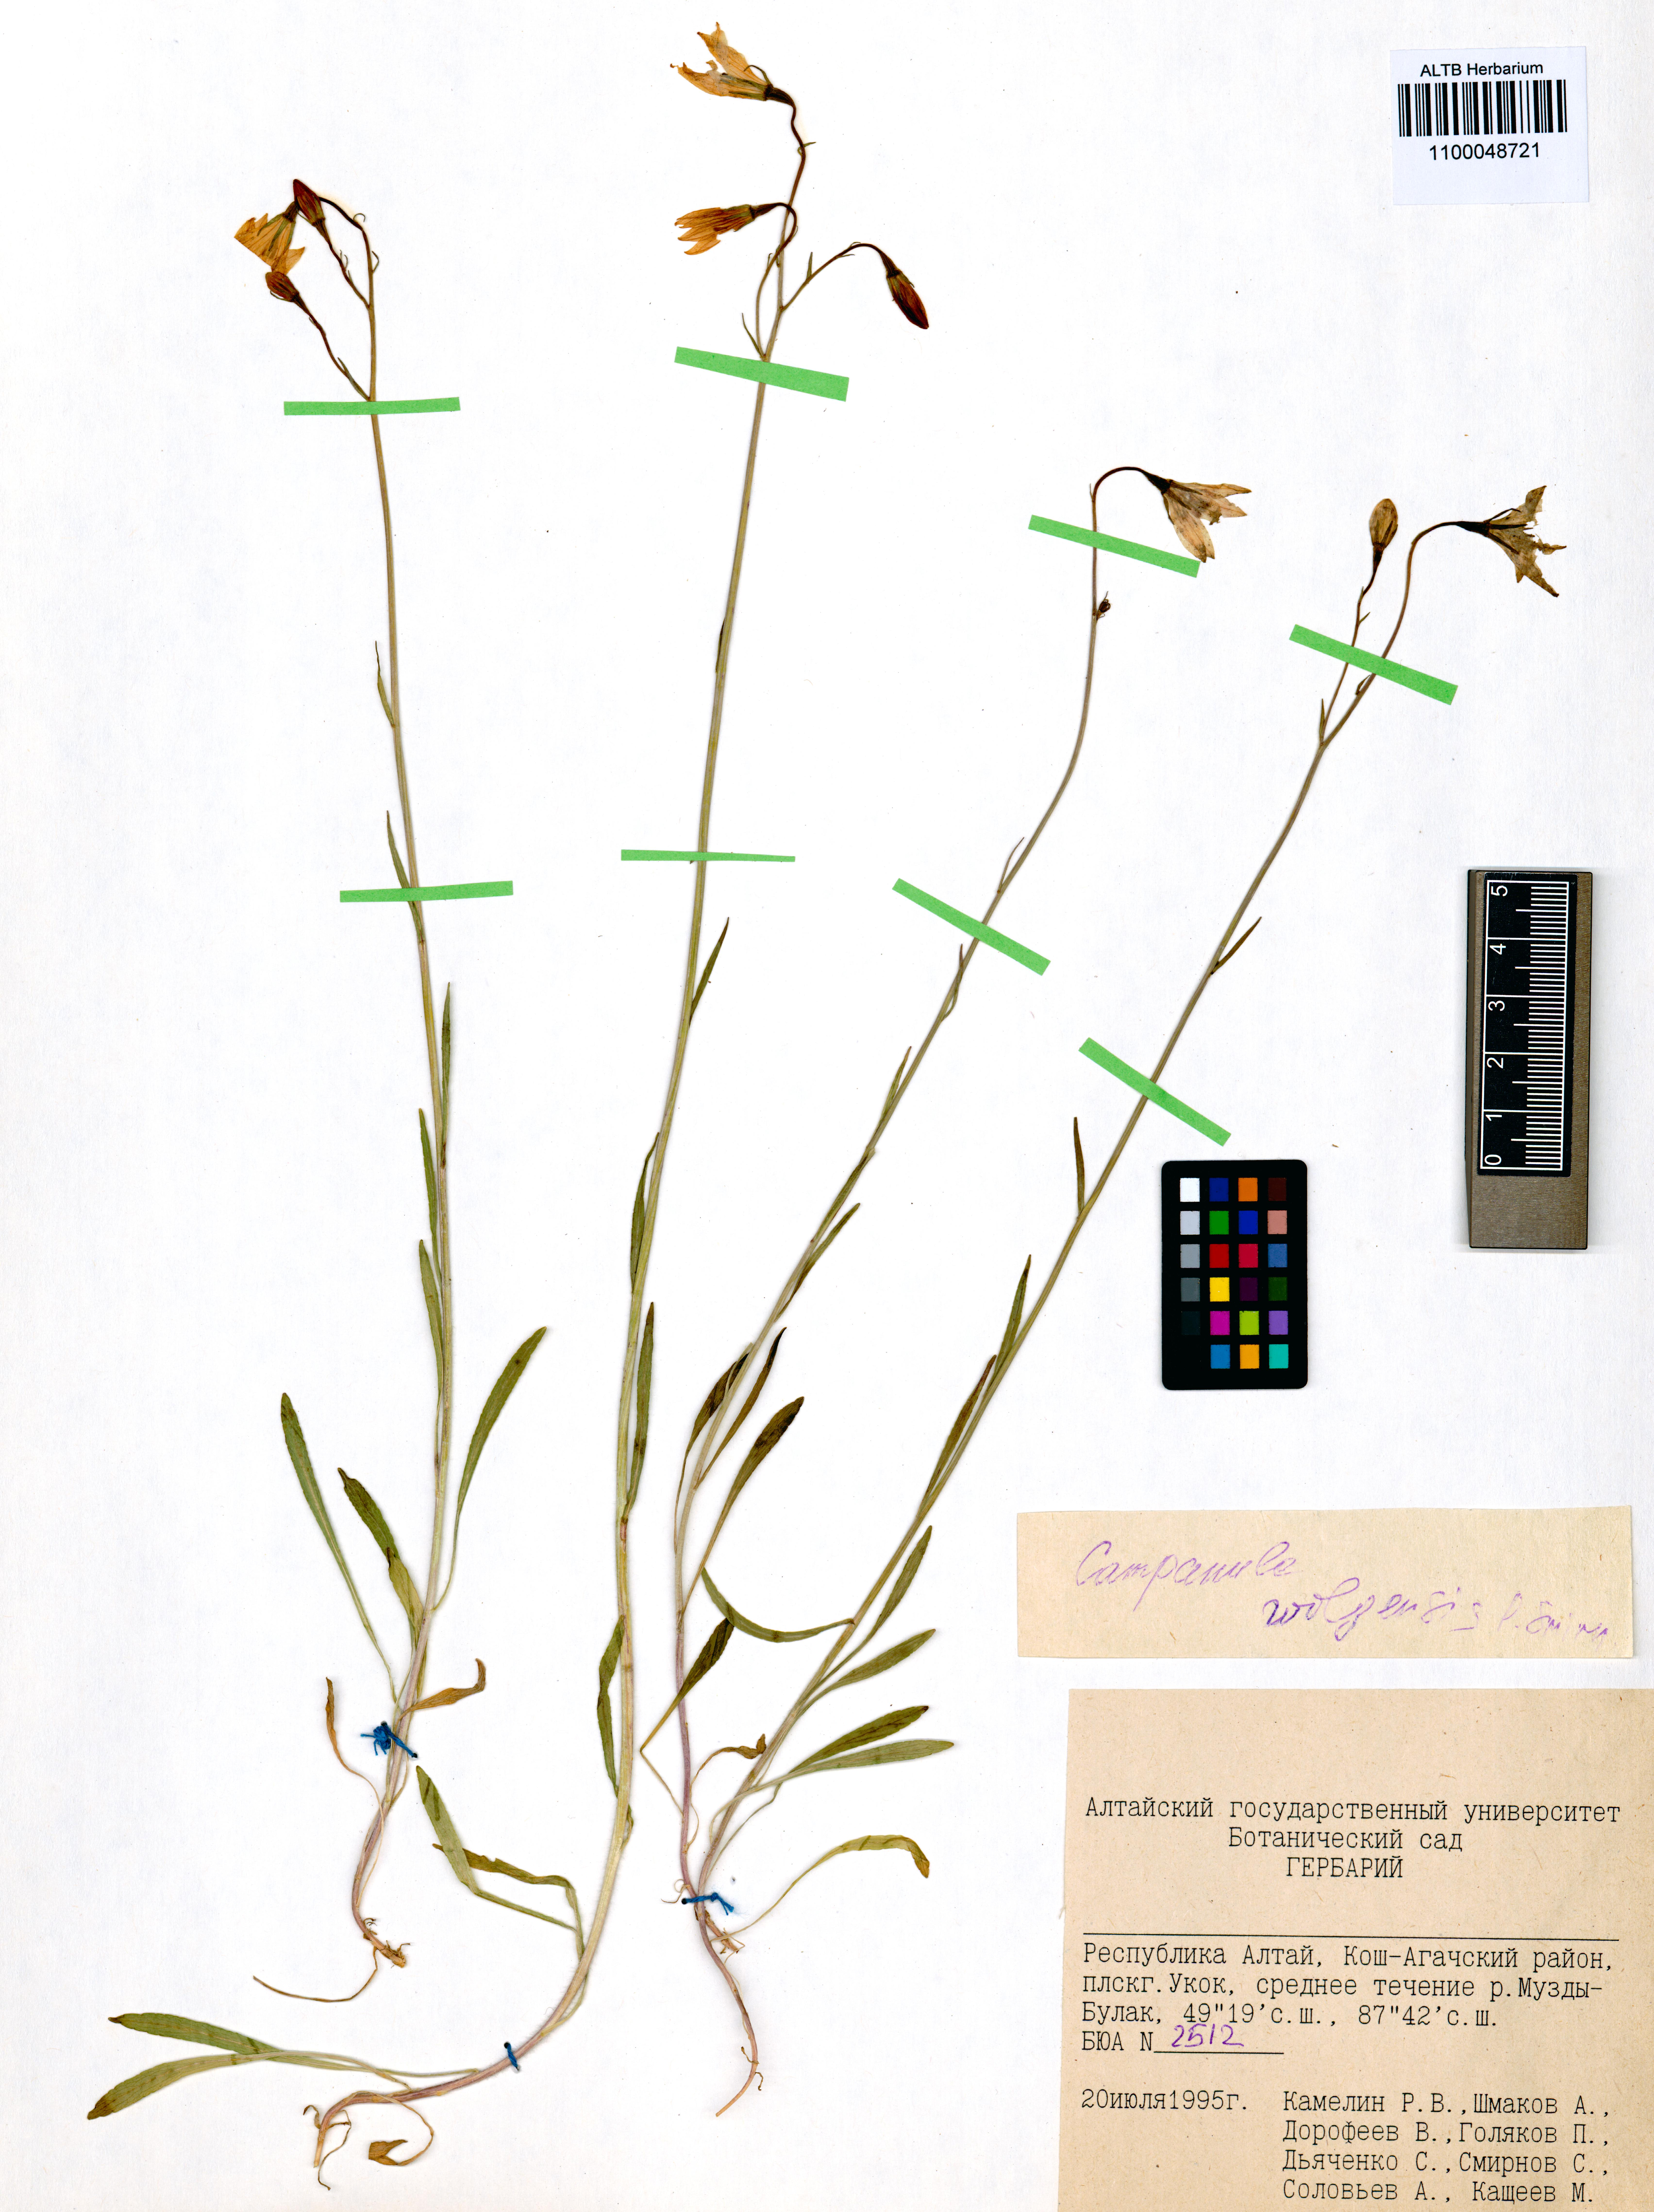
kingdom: Plantae
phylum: Tracheophyta
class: Magnoliopsida
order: Asterales
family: Campanulaceae
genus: Campanula
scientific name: Campanula stevenii
